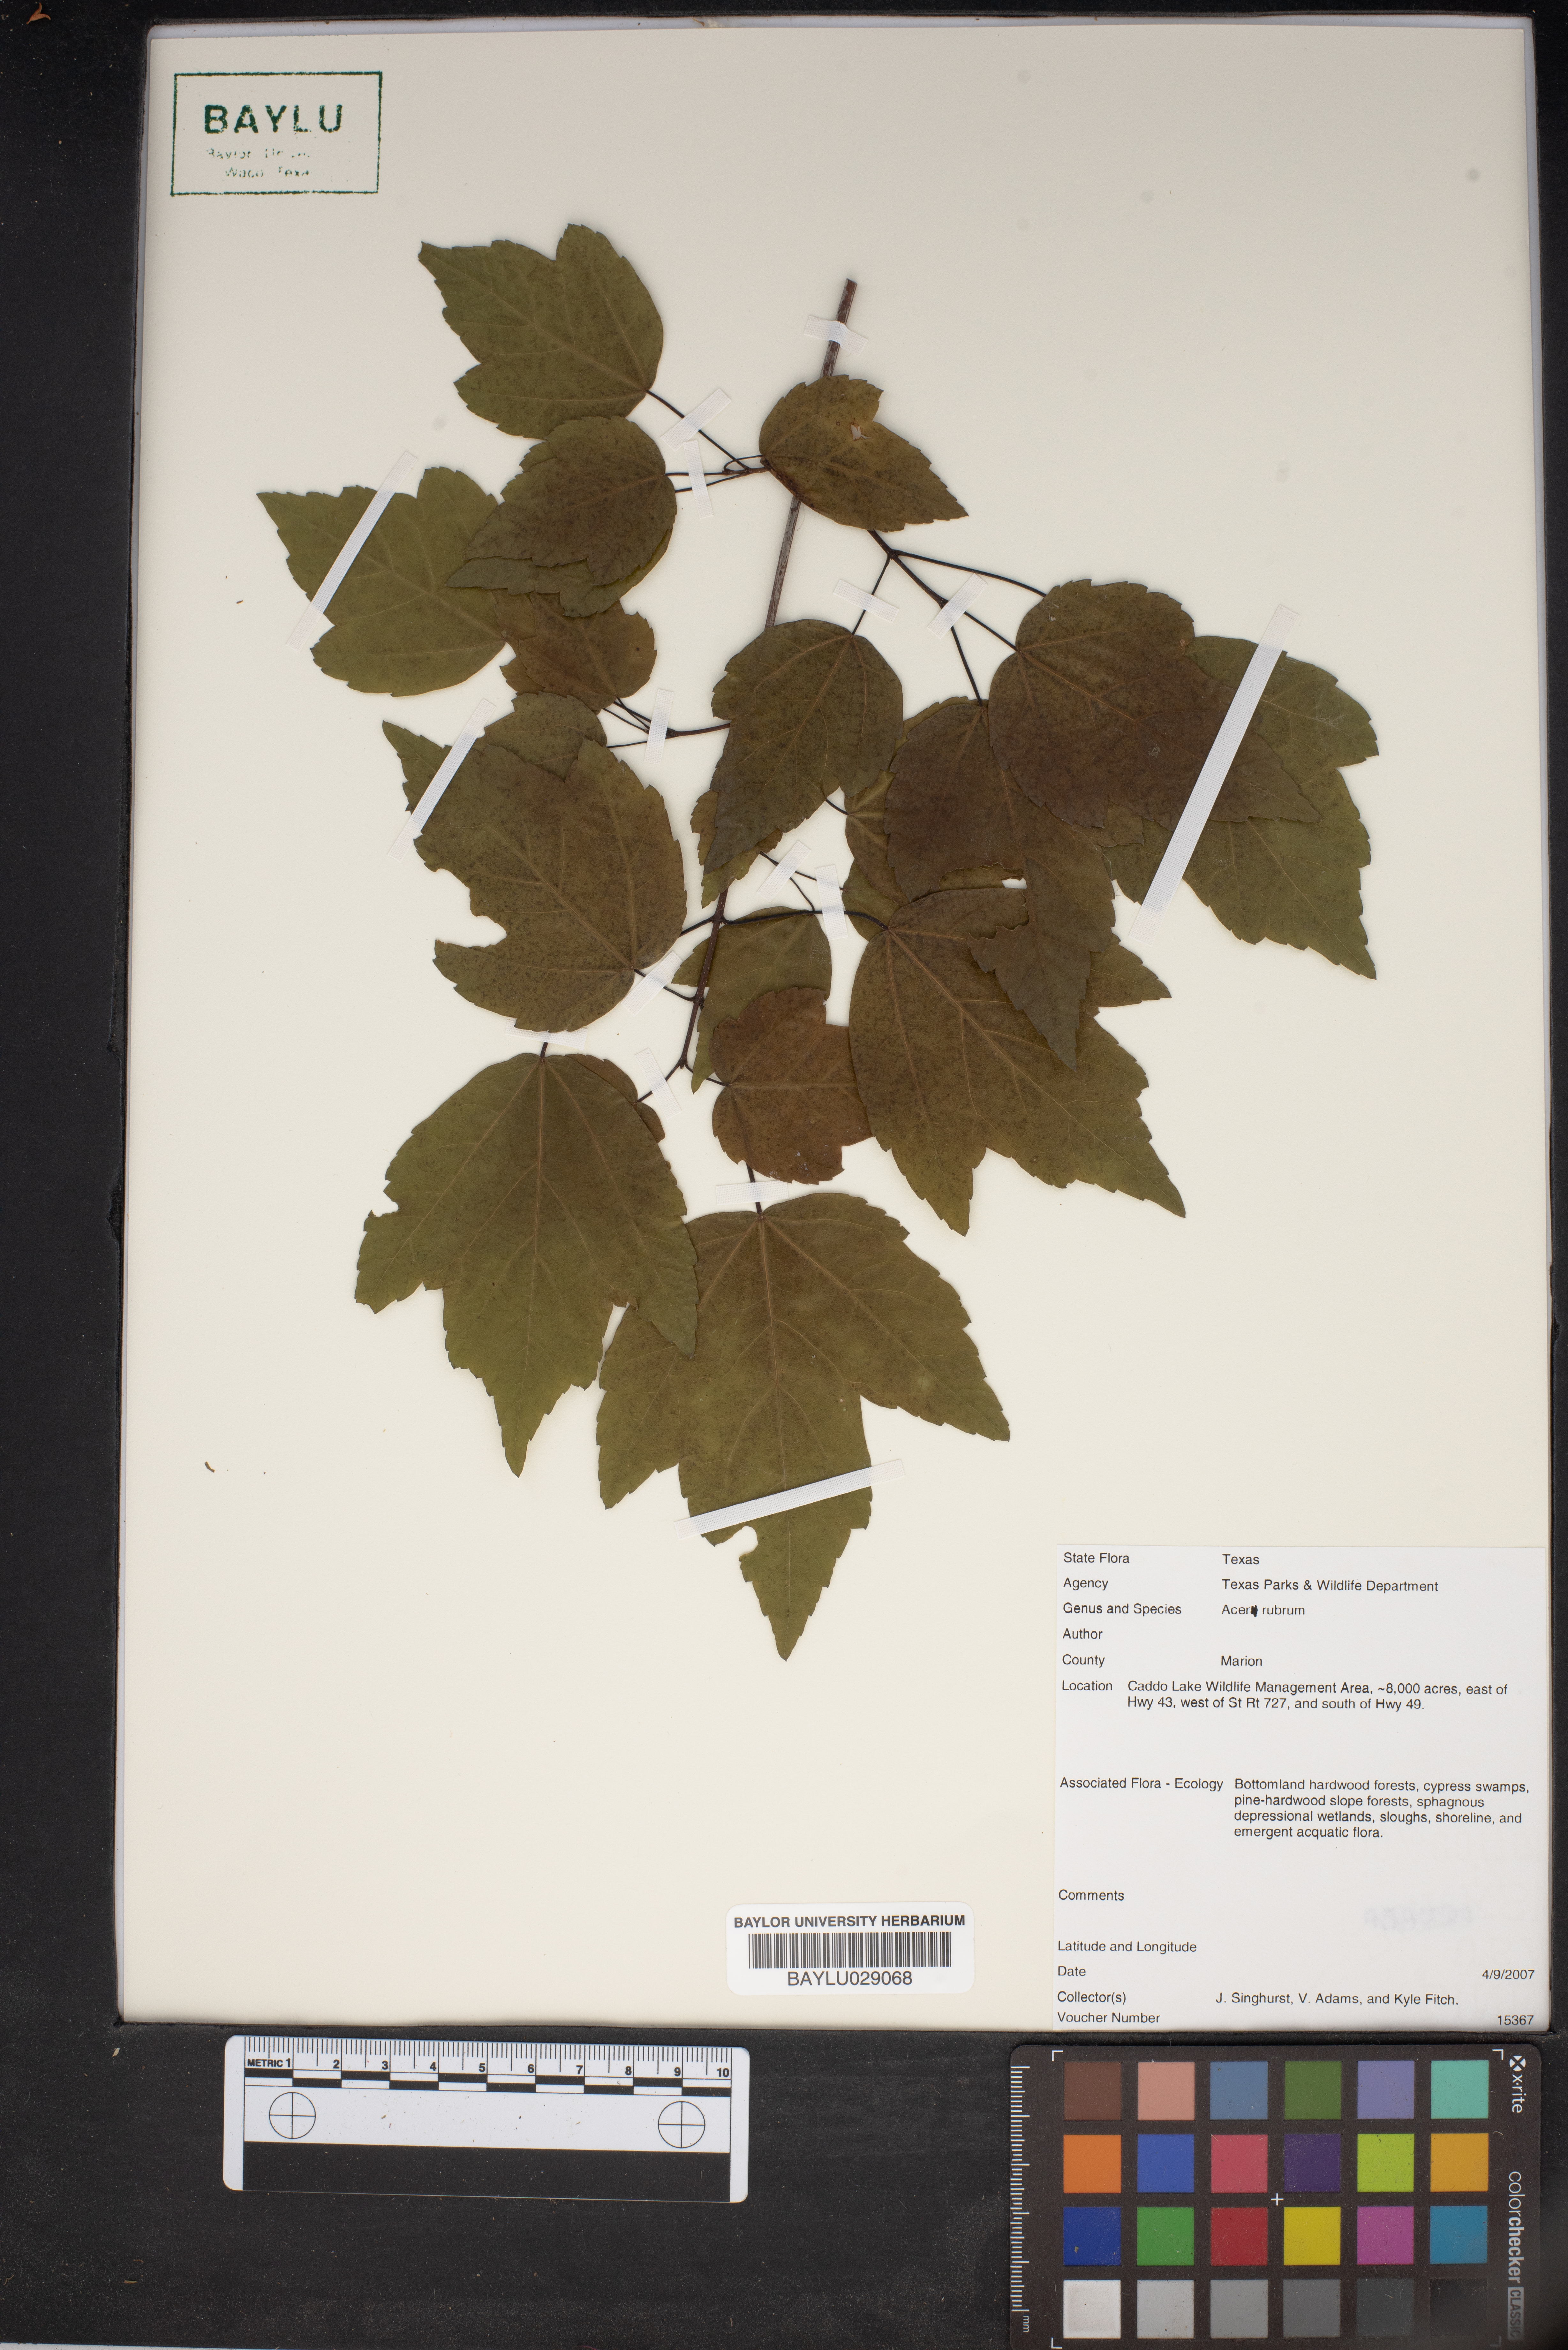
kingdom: Plantae
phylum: Tracheophyta
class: Magnoliopsida
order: Sapindales
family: Sapindaceae
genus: Acer
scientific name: Acer rubrum
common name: Red maple
